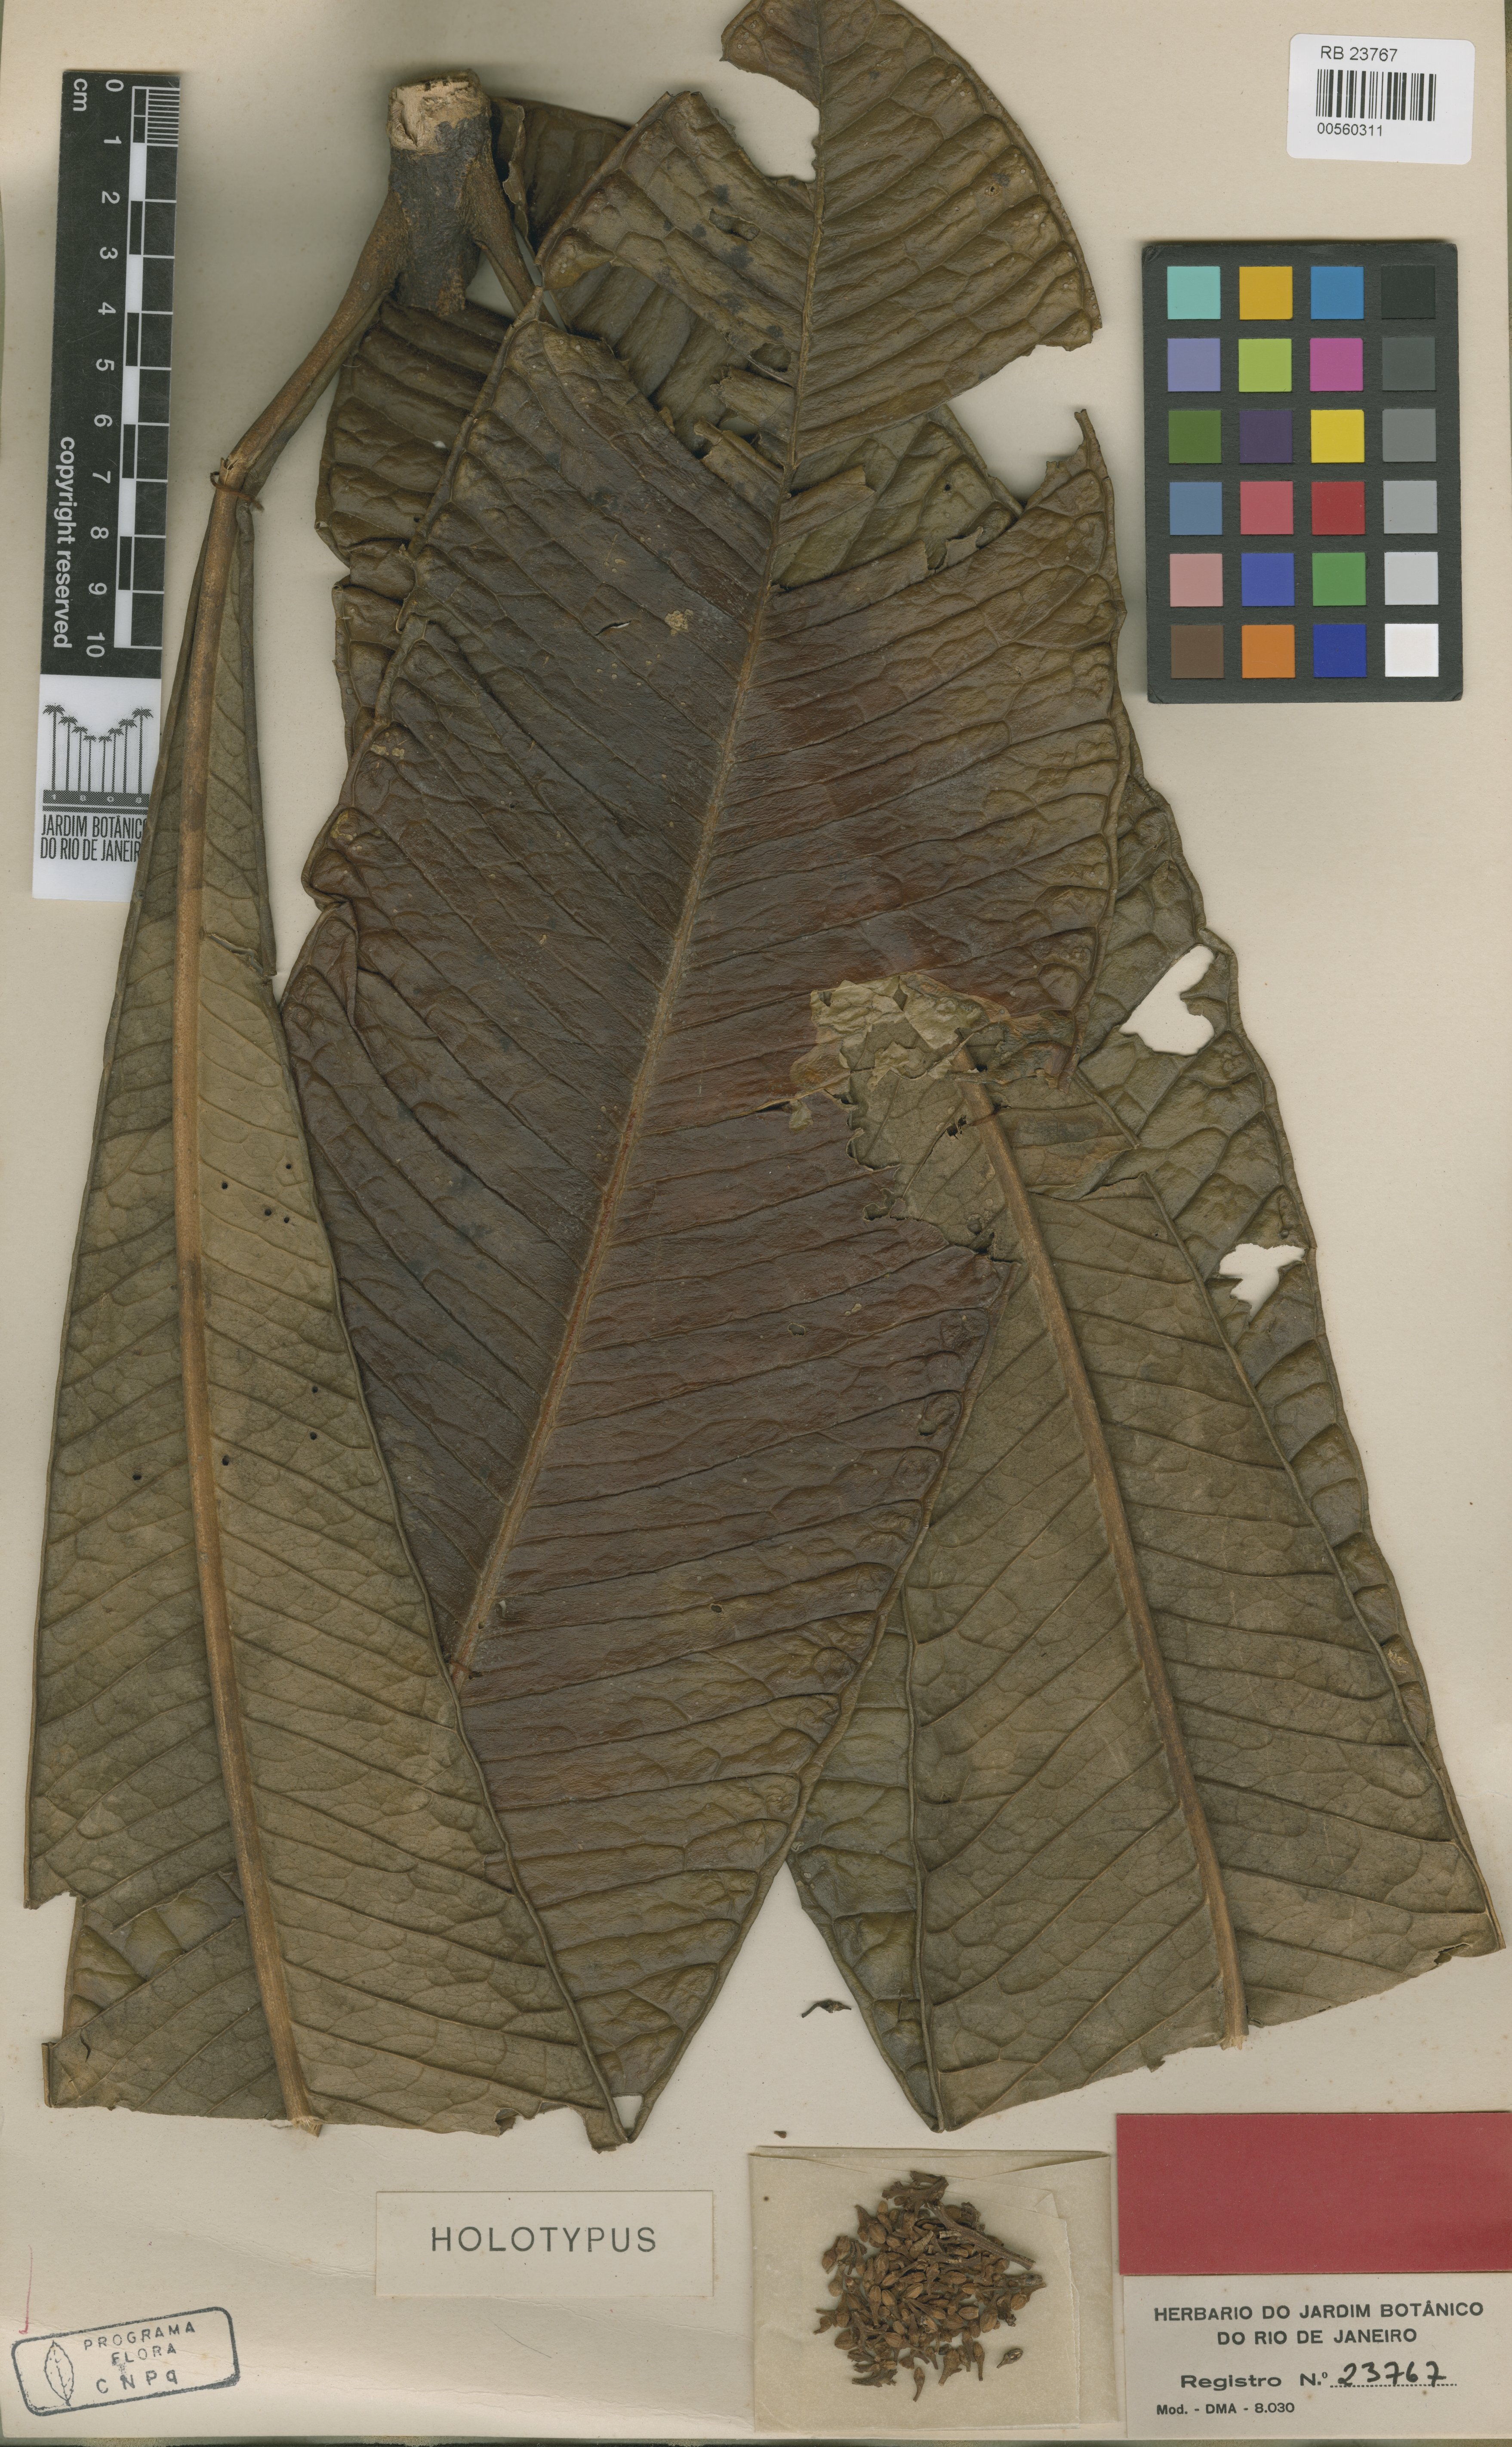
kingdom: Plantae
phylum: Tracheophyta
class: Magnoliopsida
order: Sapindales
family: Rutaceae
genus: Hortia
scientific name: Hortia superba
